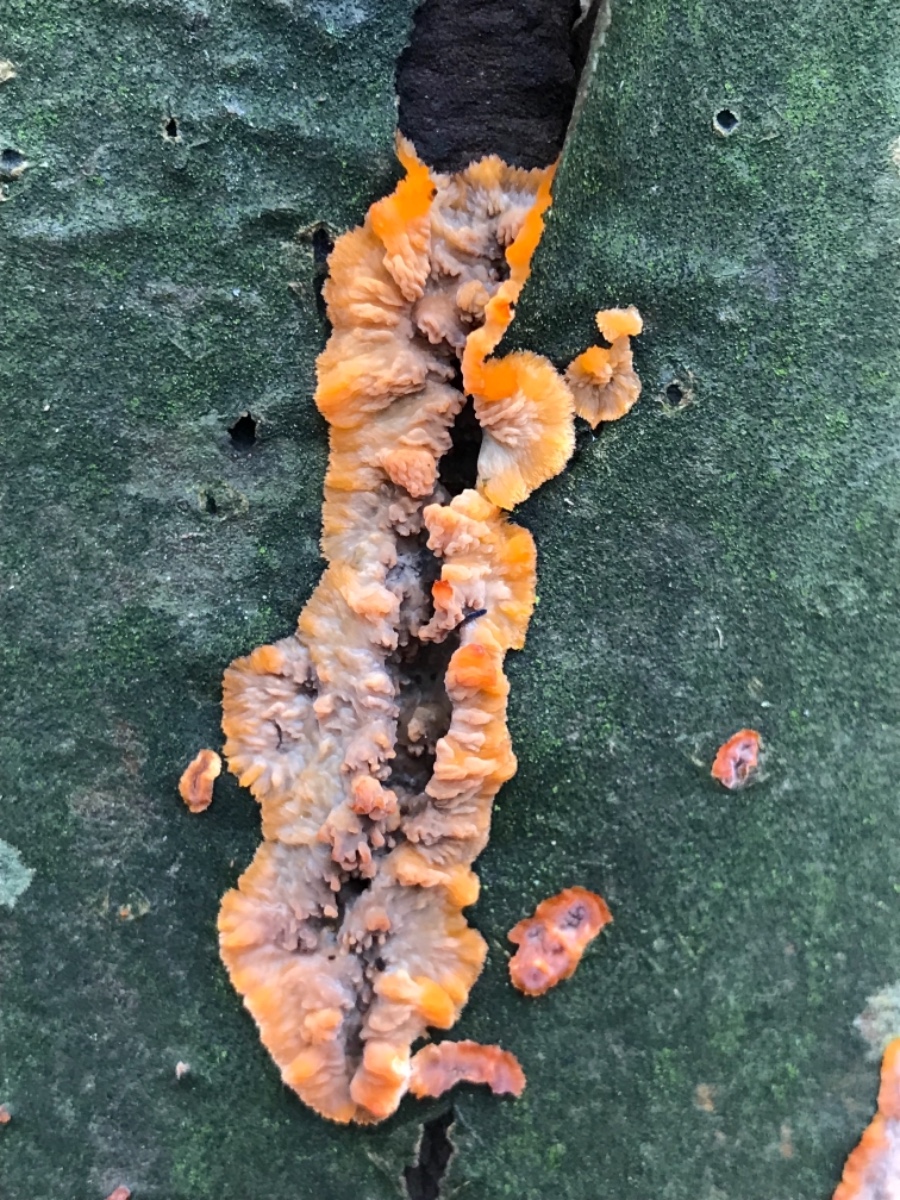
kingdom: Fungi
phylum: Basidiomycota
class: Agaricomycetes
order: Polyporales
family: Meruliaceae
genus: Phlebia
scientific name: Phlebia radiata
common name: stråle-åresvamp
